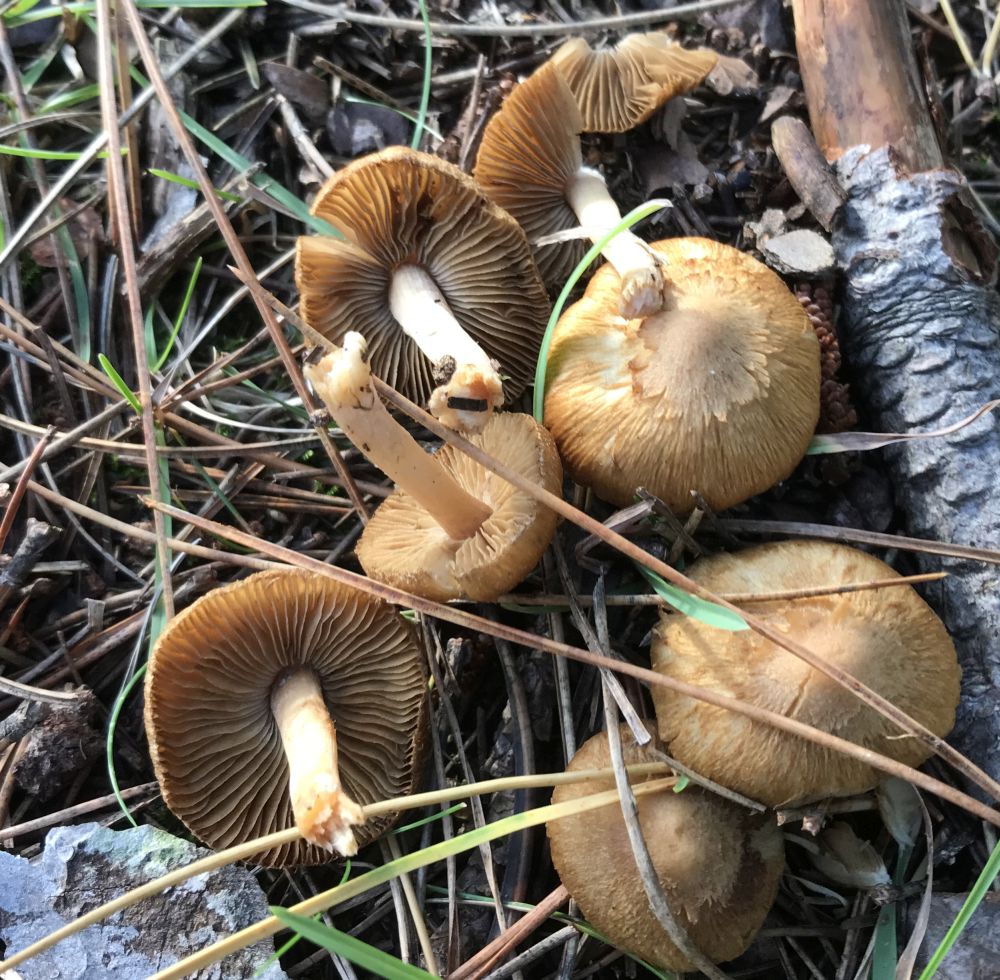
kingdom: Fungi
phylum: Basidiomycota
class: Agaricomycetes
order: Agaricales
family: Inocybaceae
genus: Inocybe
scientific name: Inocybe
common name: trævlhat
